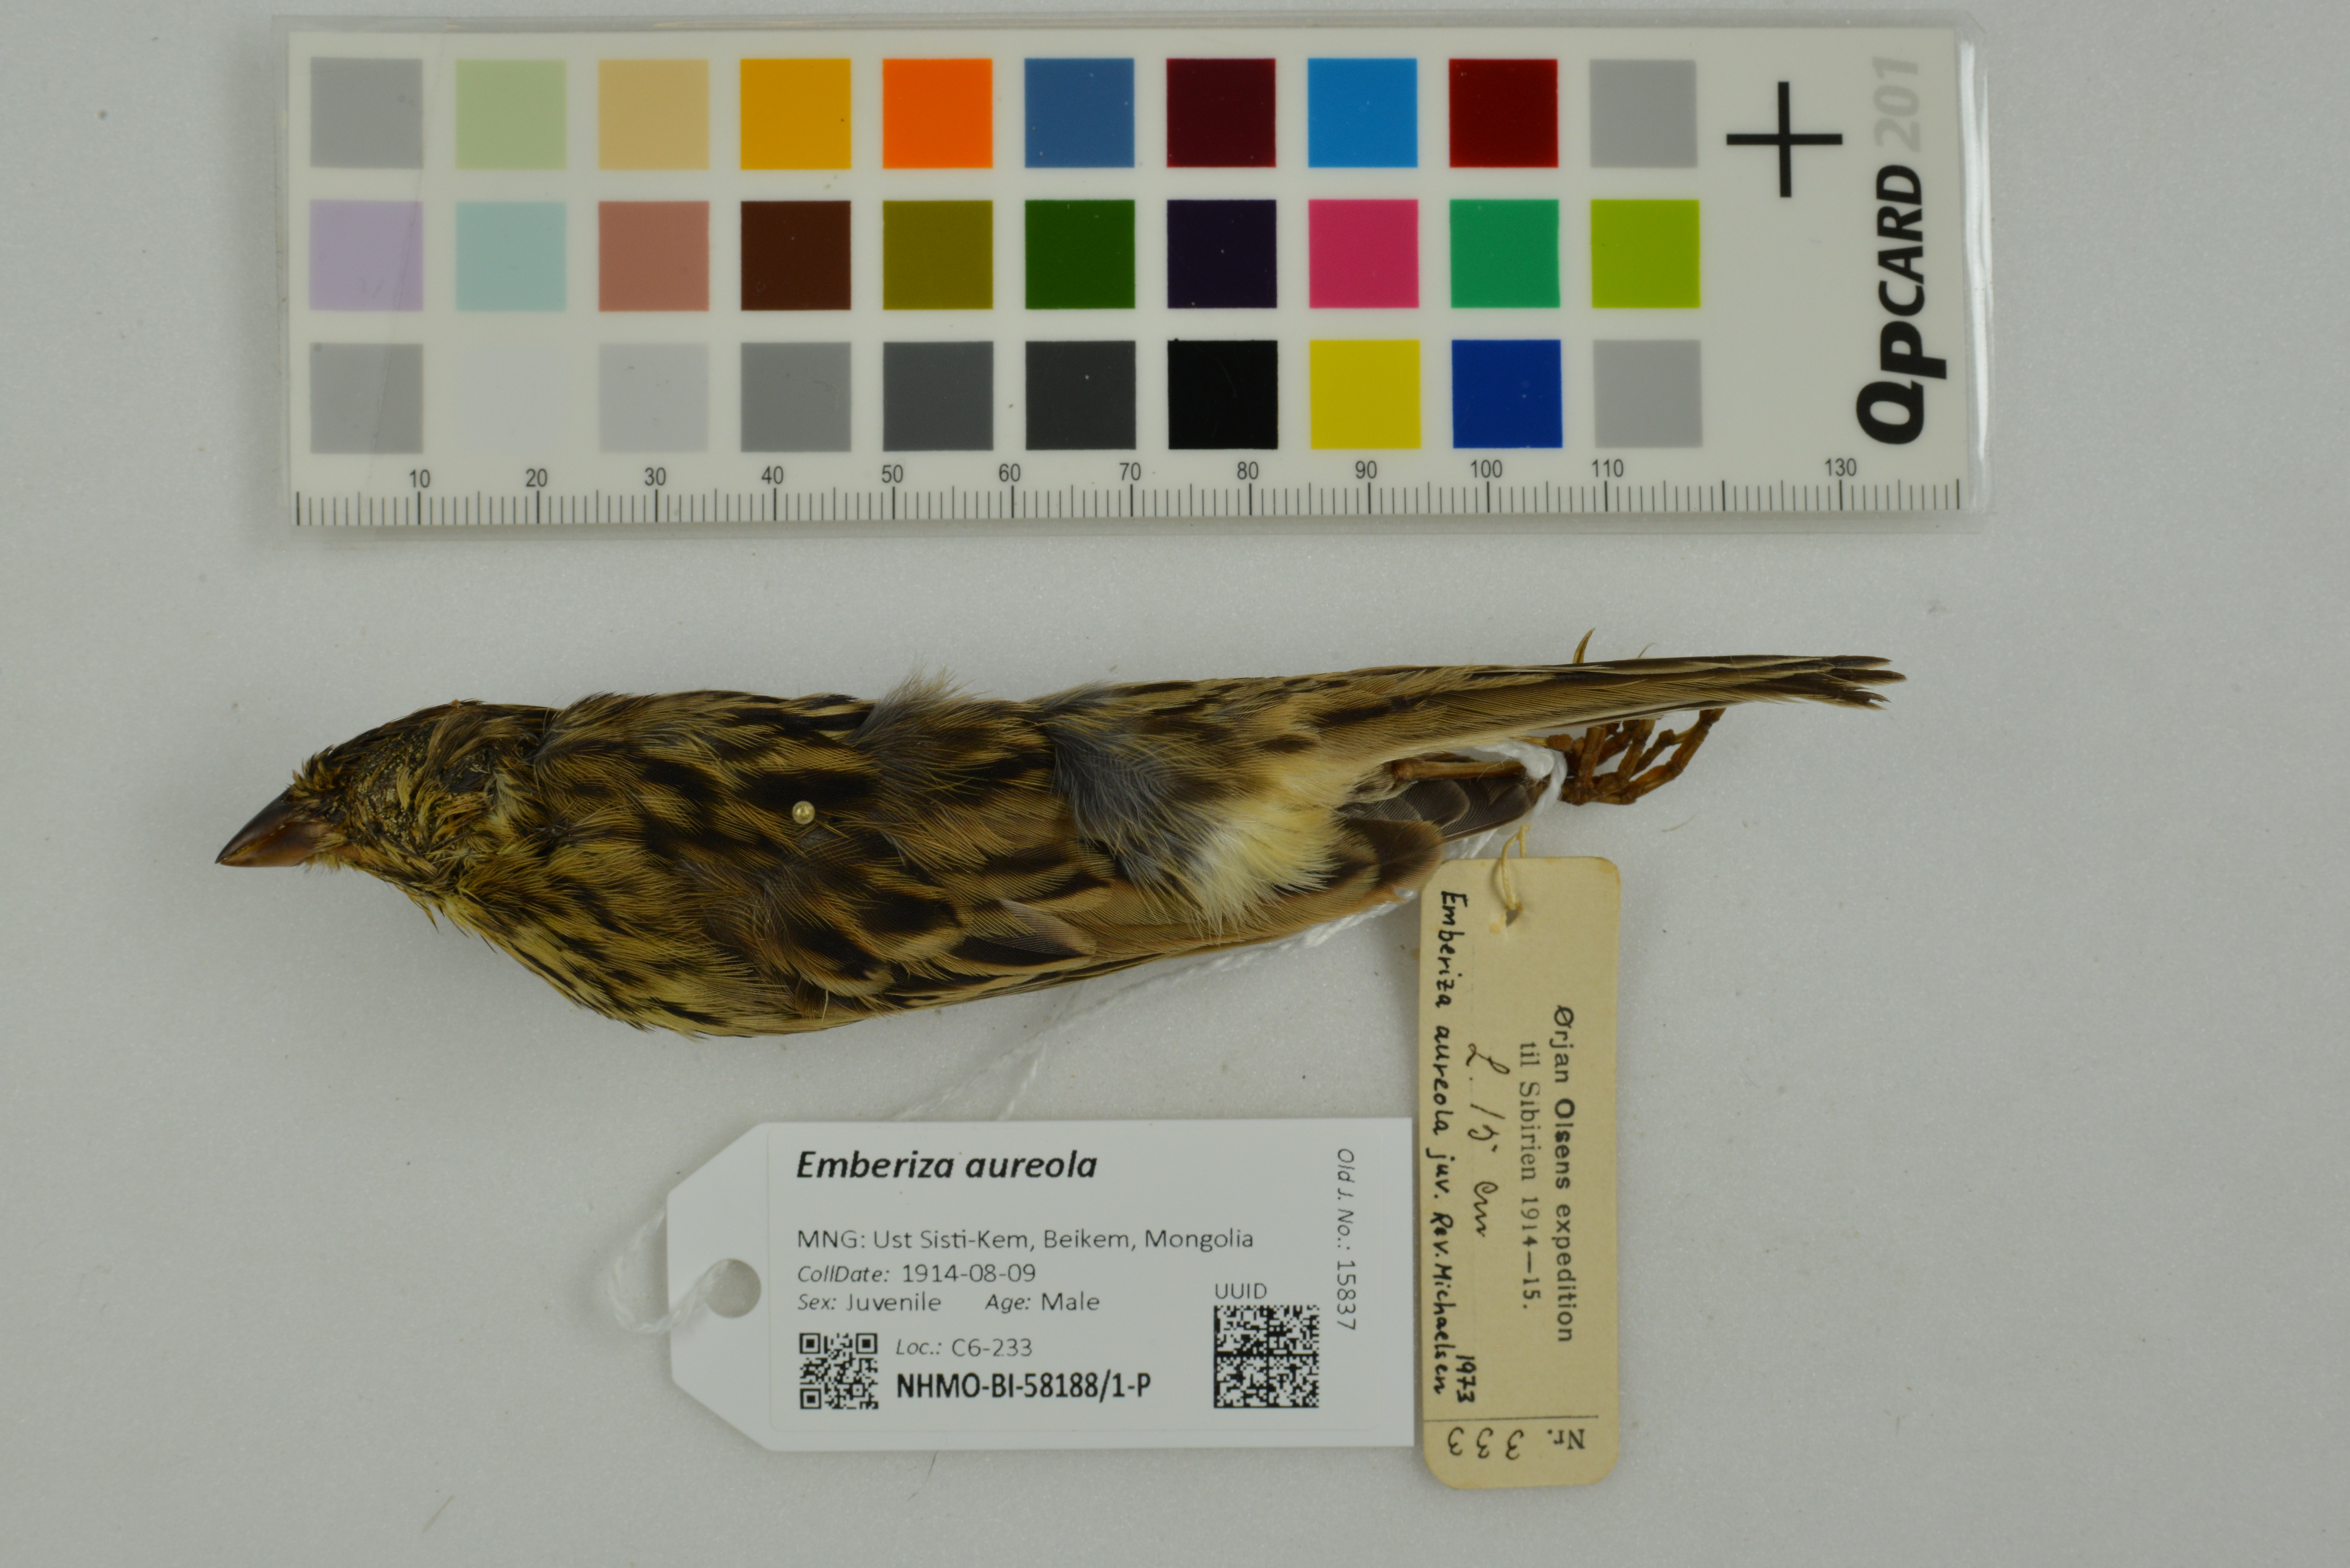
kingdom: Animalia
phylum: Chordata
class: Aves
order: Passeriformes
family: Emberizidae
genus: Emberiza
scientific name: Emberiza aureola
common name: Yellow-breasted bunting
